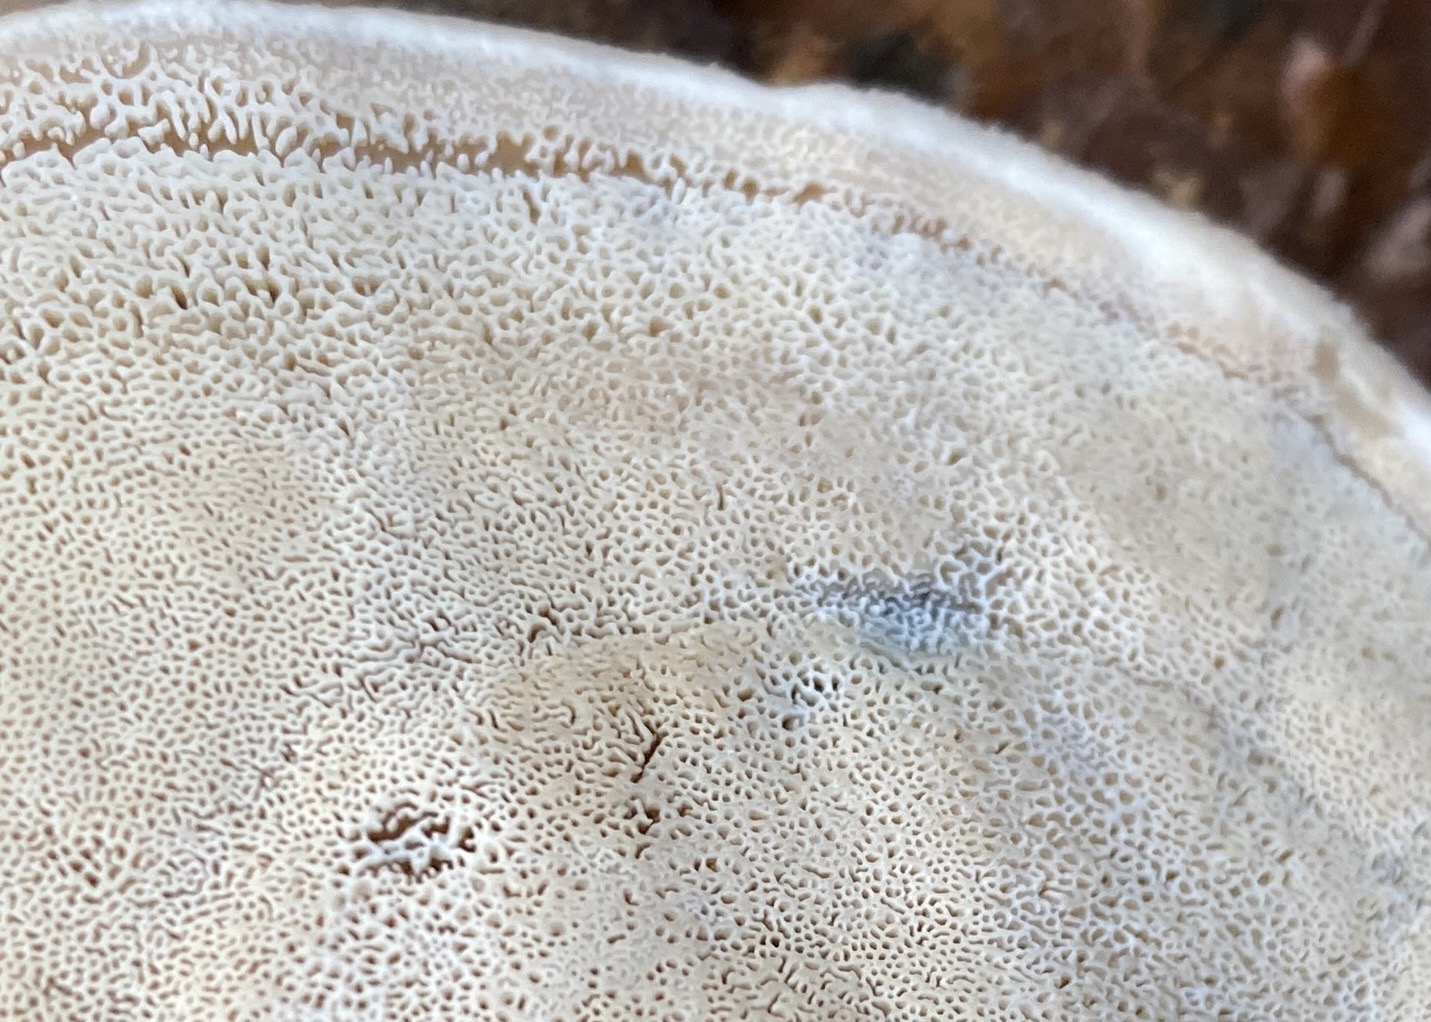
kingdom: Fungi
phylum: Basidiomycota
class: Agaricomycetes
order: Polyporales
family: Phanerochaetaceae
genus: Bjerkandera
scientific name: Bjerkandera fumosa
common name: grågul sodporesvamp
